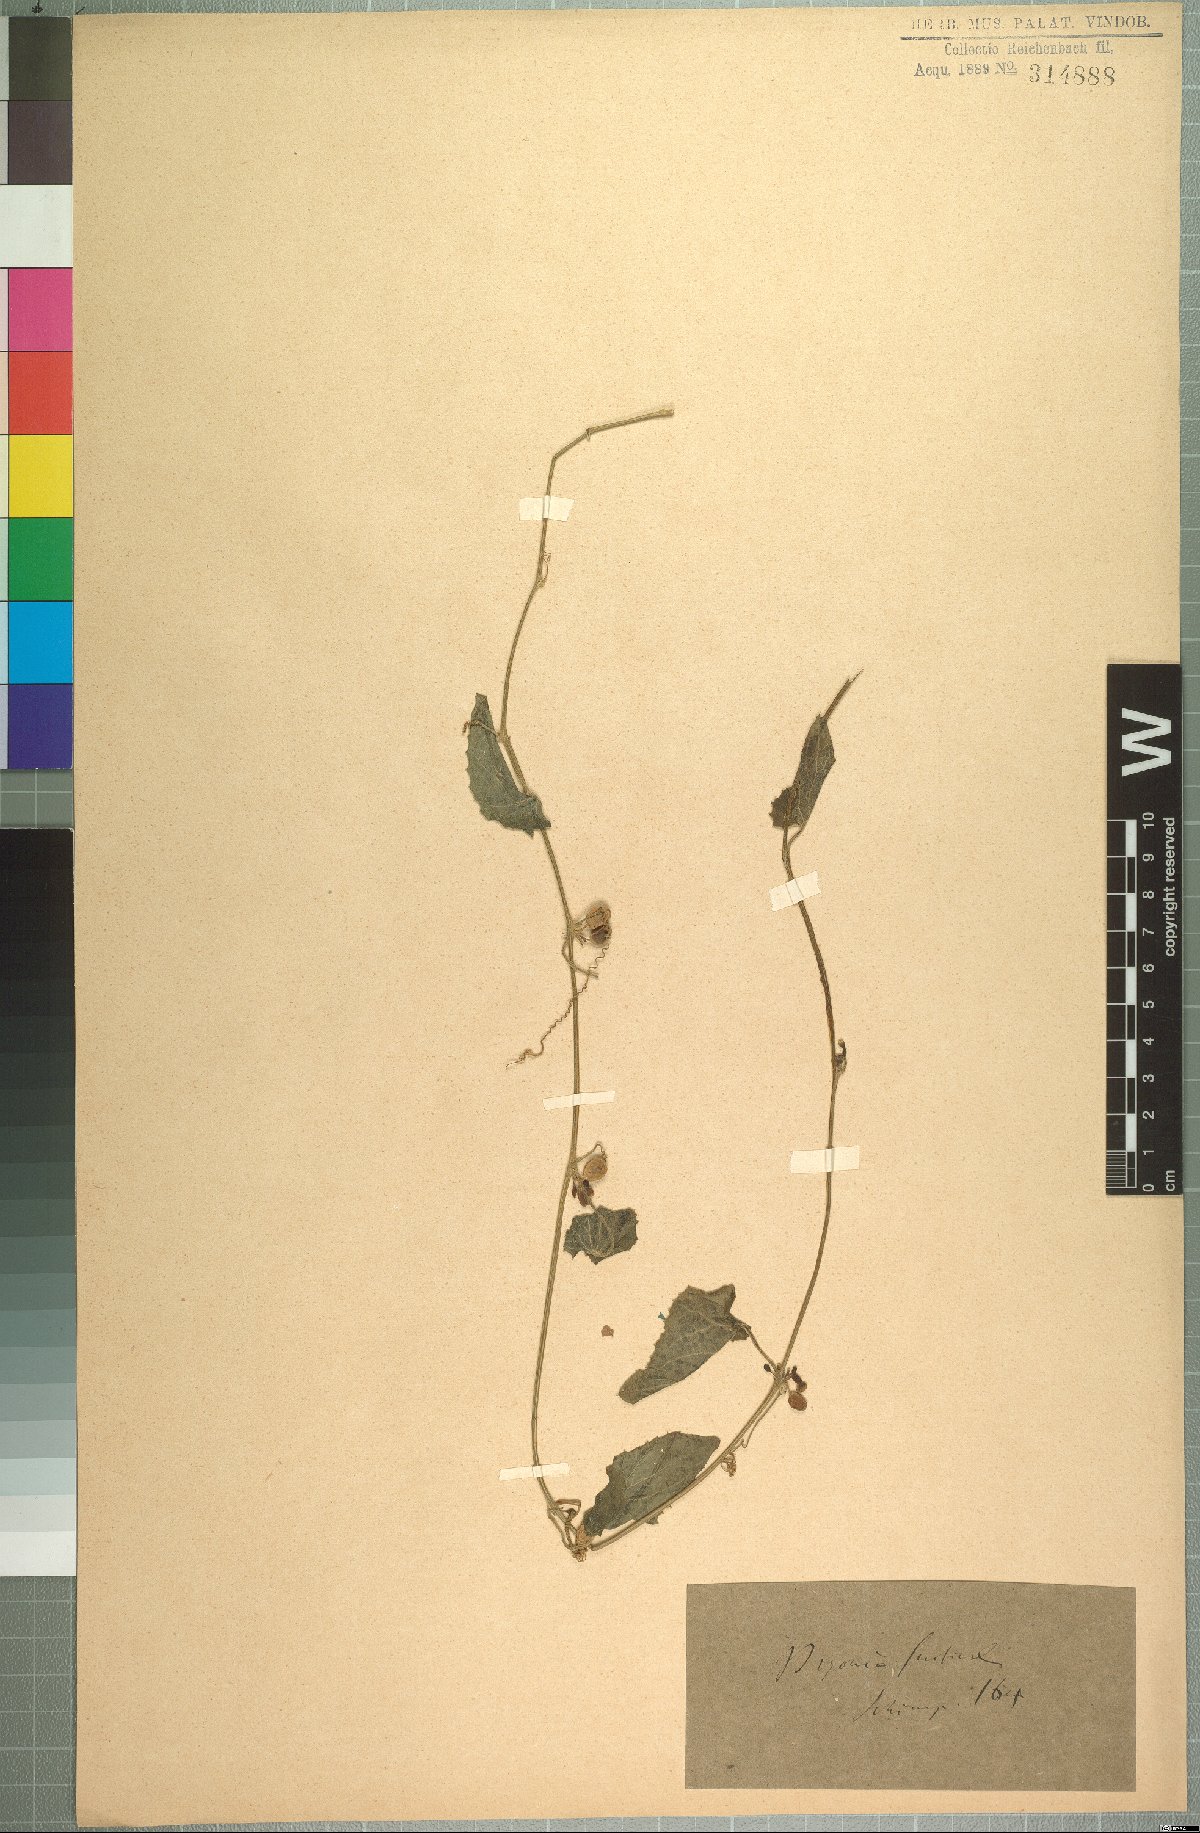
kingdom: Plantae
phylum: Tracheophyta
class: Magnoliopsida
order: Cucurbitales
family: Cucurbitaceae
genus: Zehneria
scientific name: Zehneria scabra
